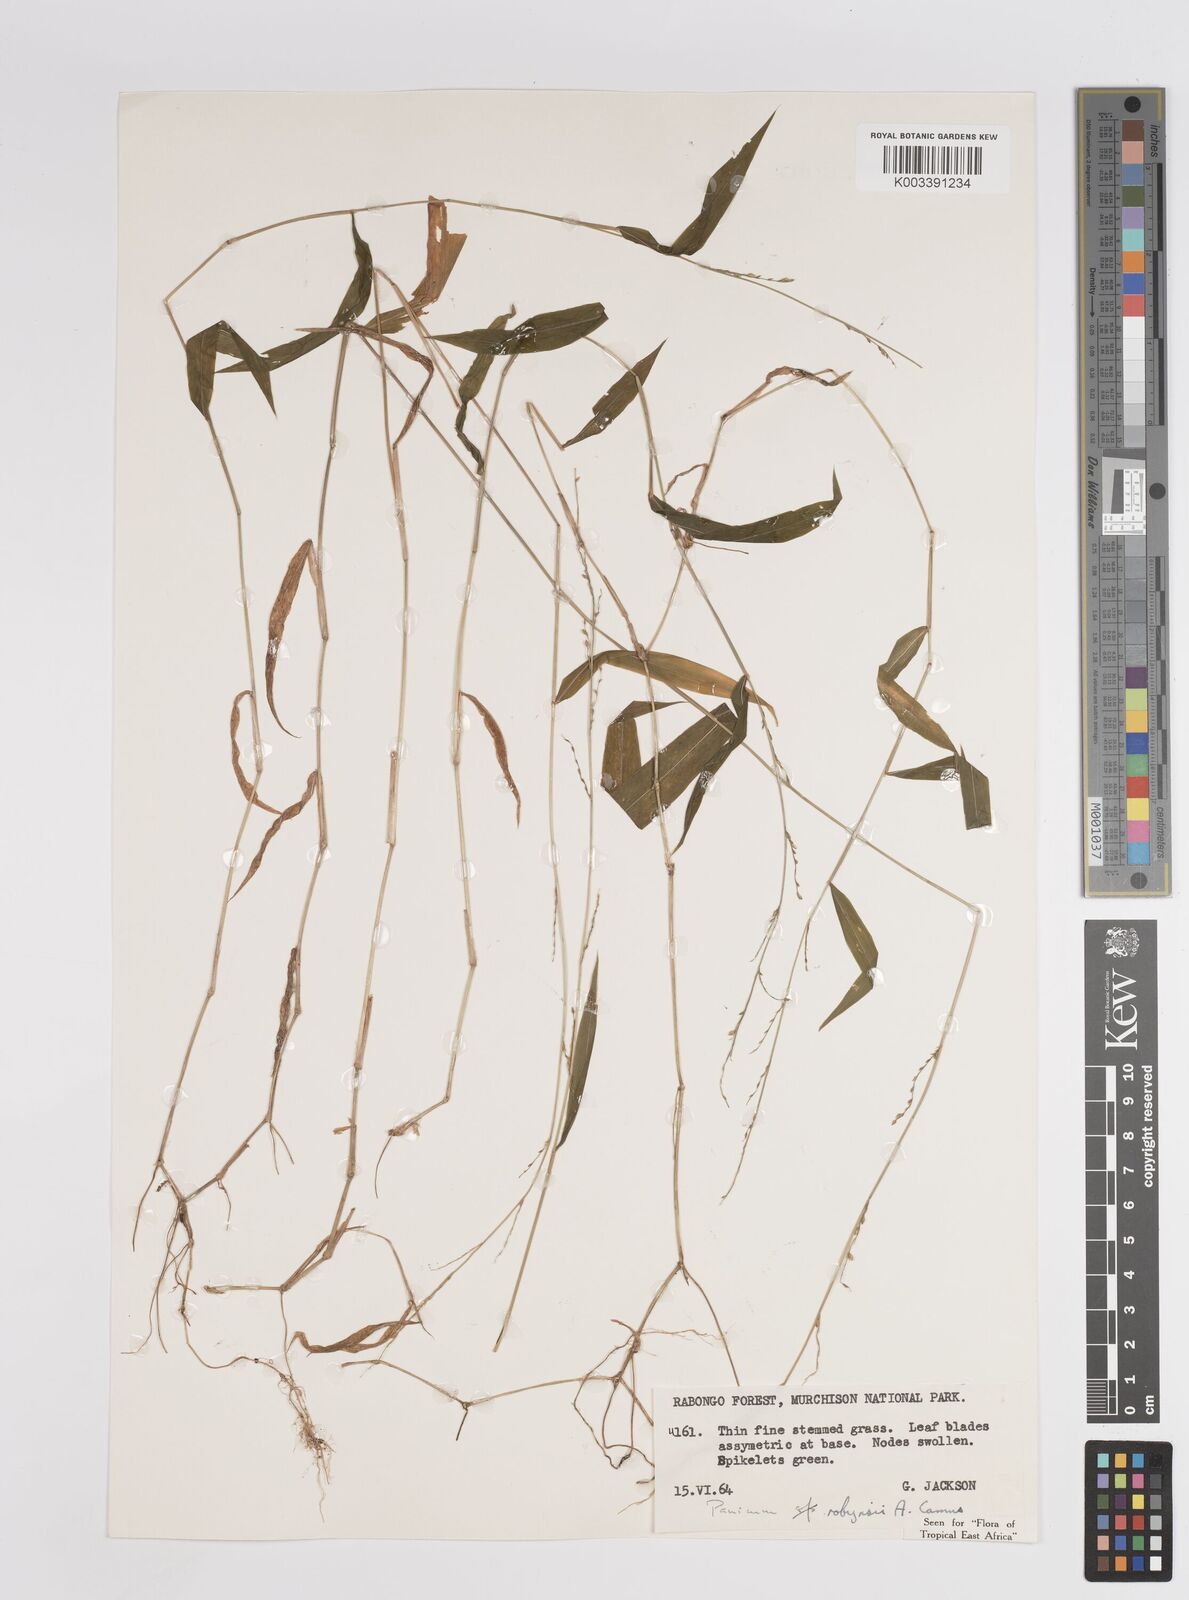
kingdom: Plantae
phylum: Tracheophyta
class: Liliopsida
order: Poales
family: Poaceae
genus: Panicum
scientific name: Panicum robynsii
